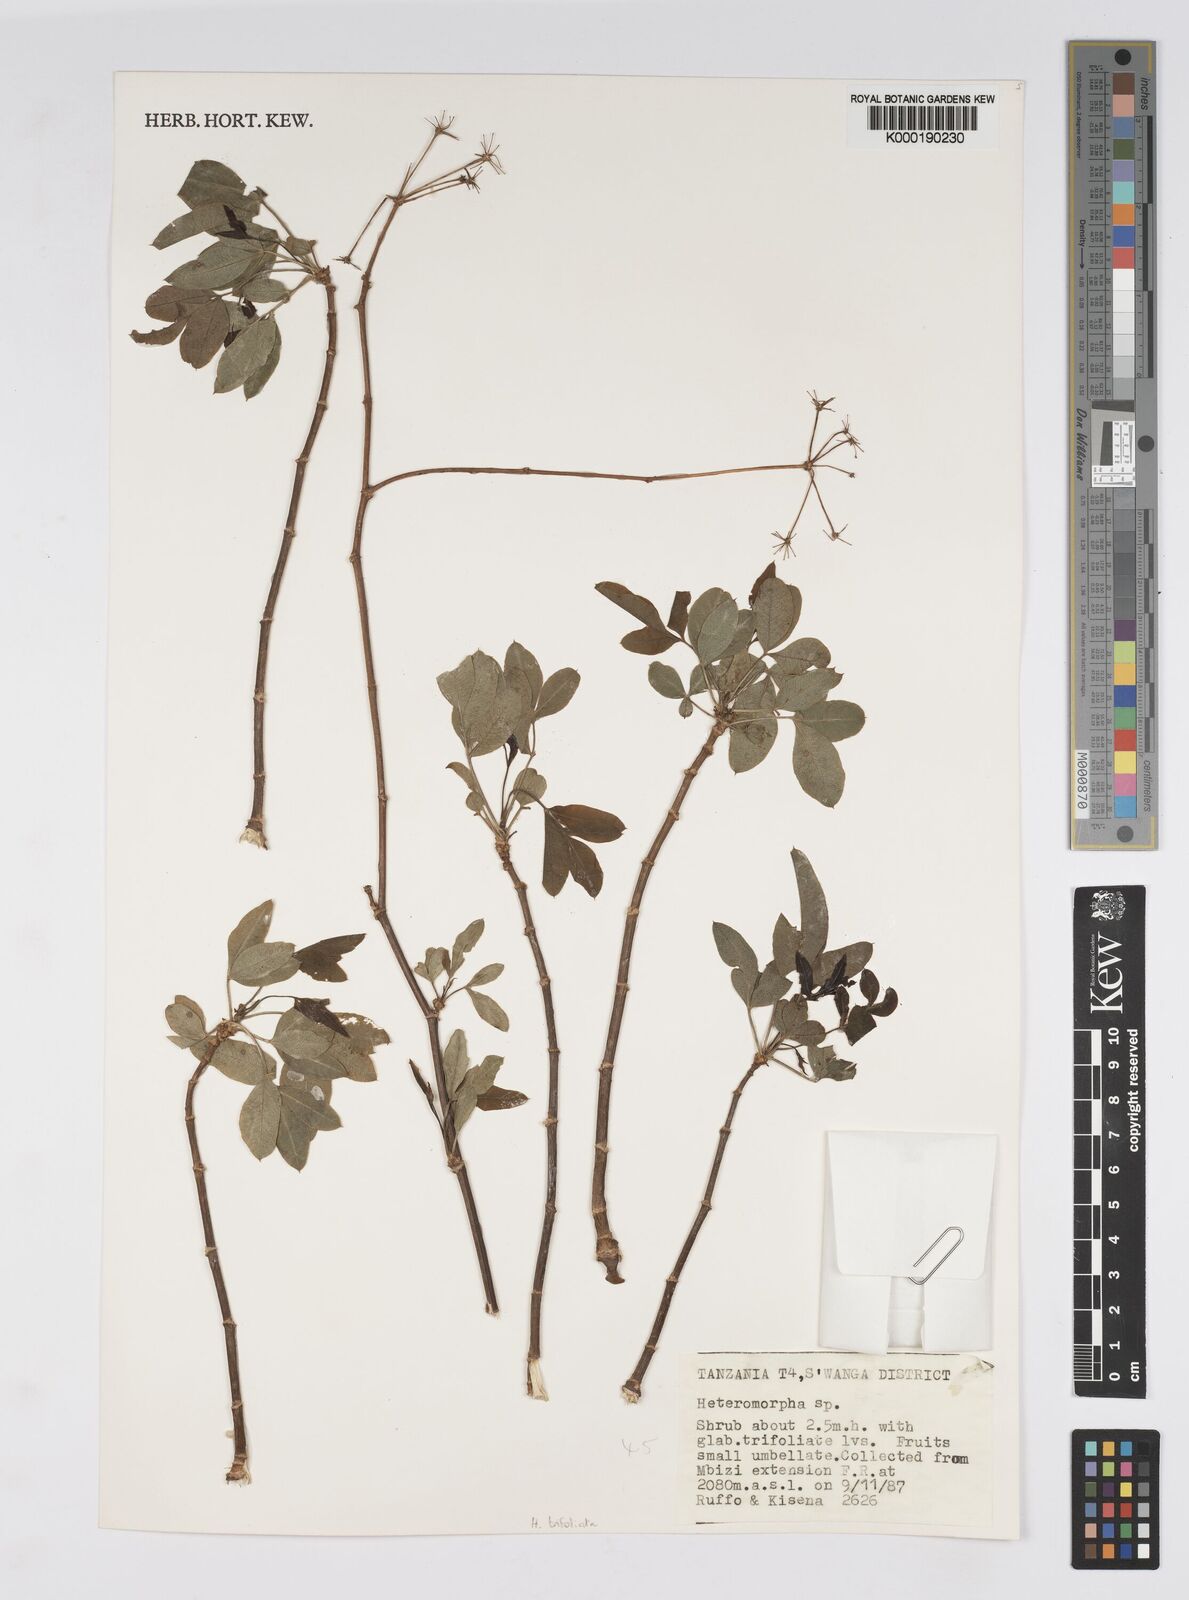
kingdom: Plantae
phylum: Tracheophyta
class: Magnoliopsida
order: Apiales
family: Apiaceae
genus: Heteromorpha
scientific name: Heteromorpha arborescens
